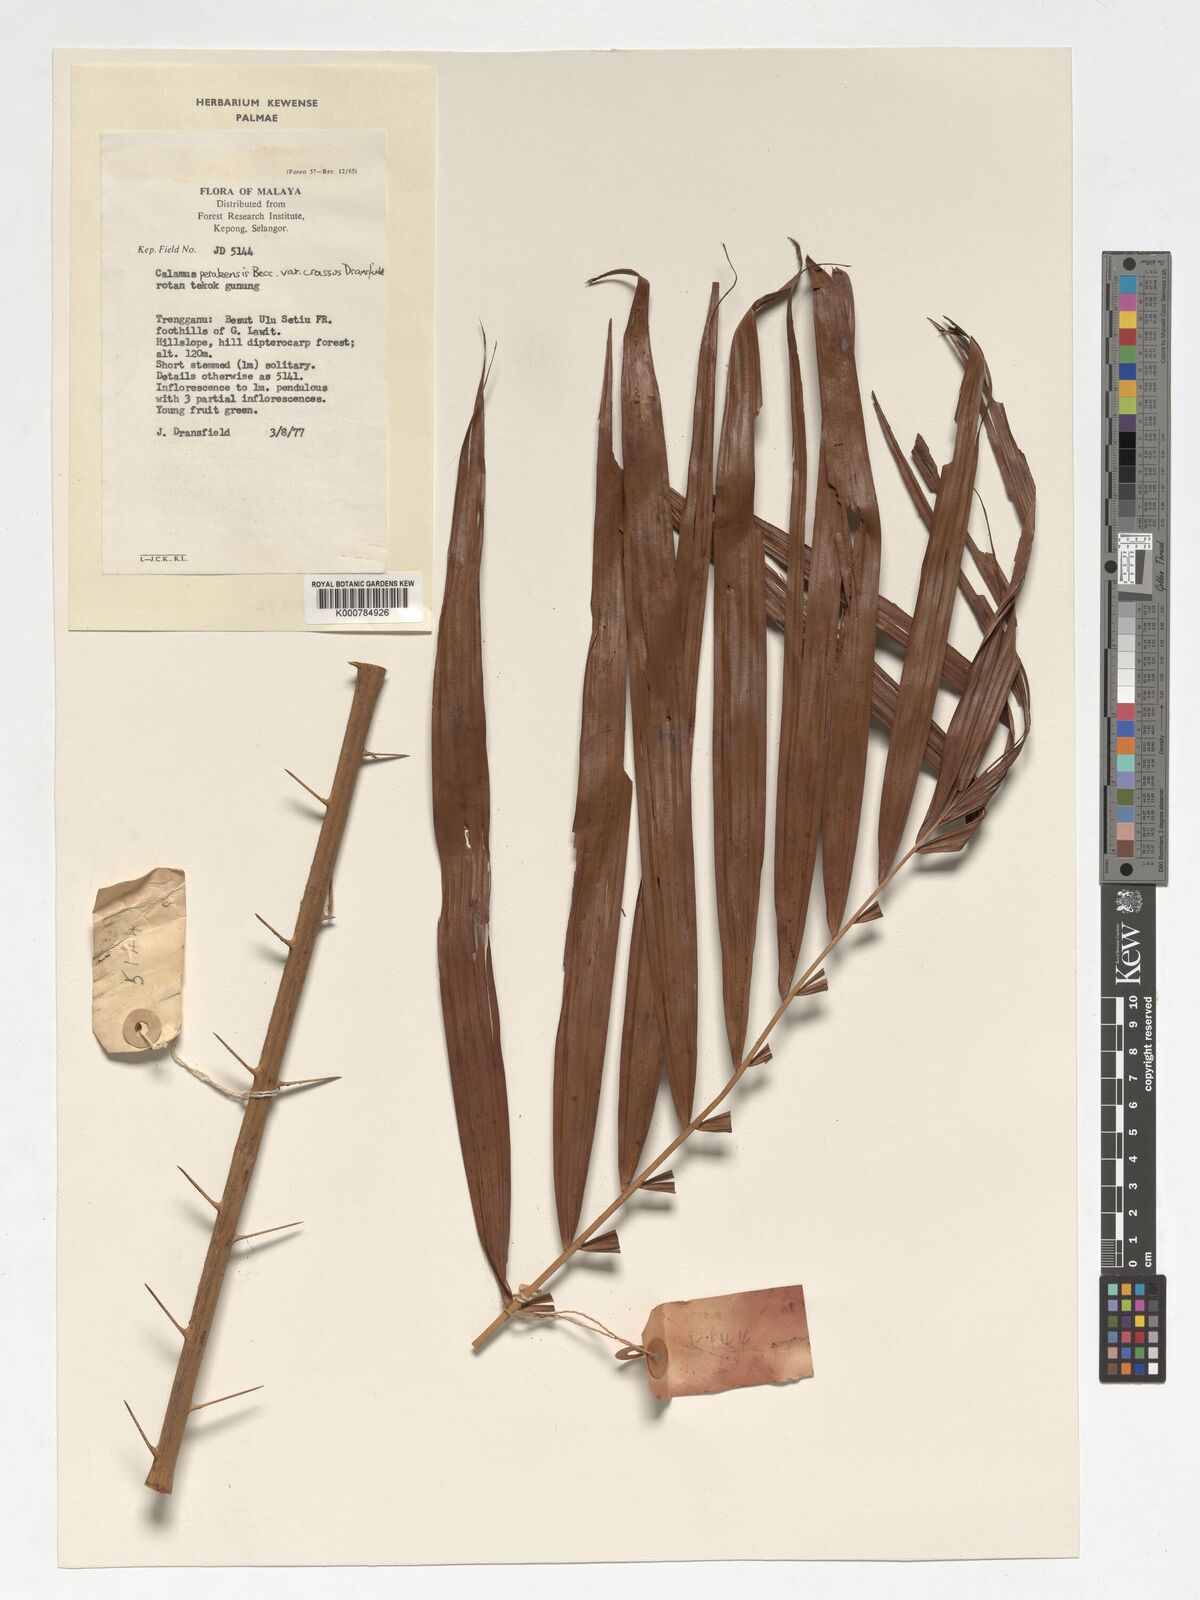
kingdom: Plantae
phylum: Tracheophyta
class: Liliopsida
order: Arecales
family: Arecaceae
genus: Calamus
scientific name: Calamus perakensis
